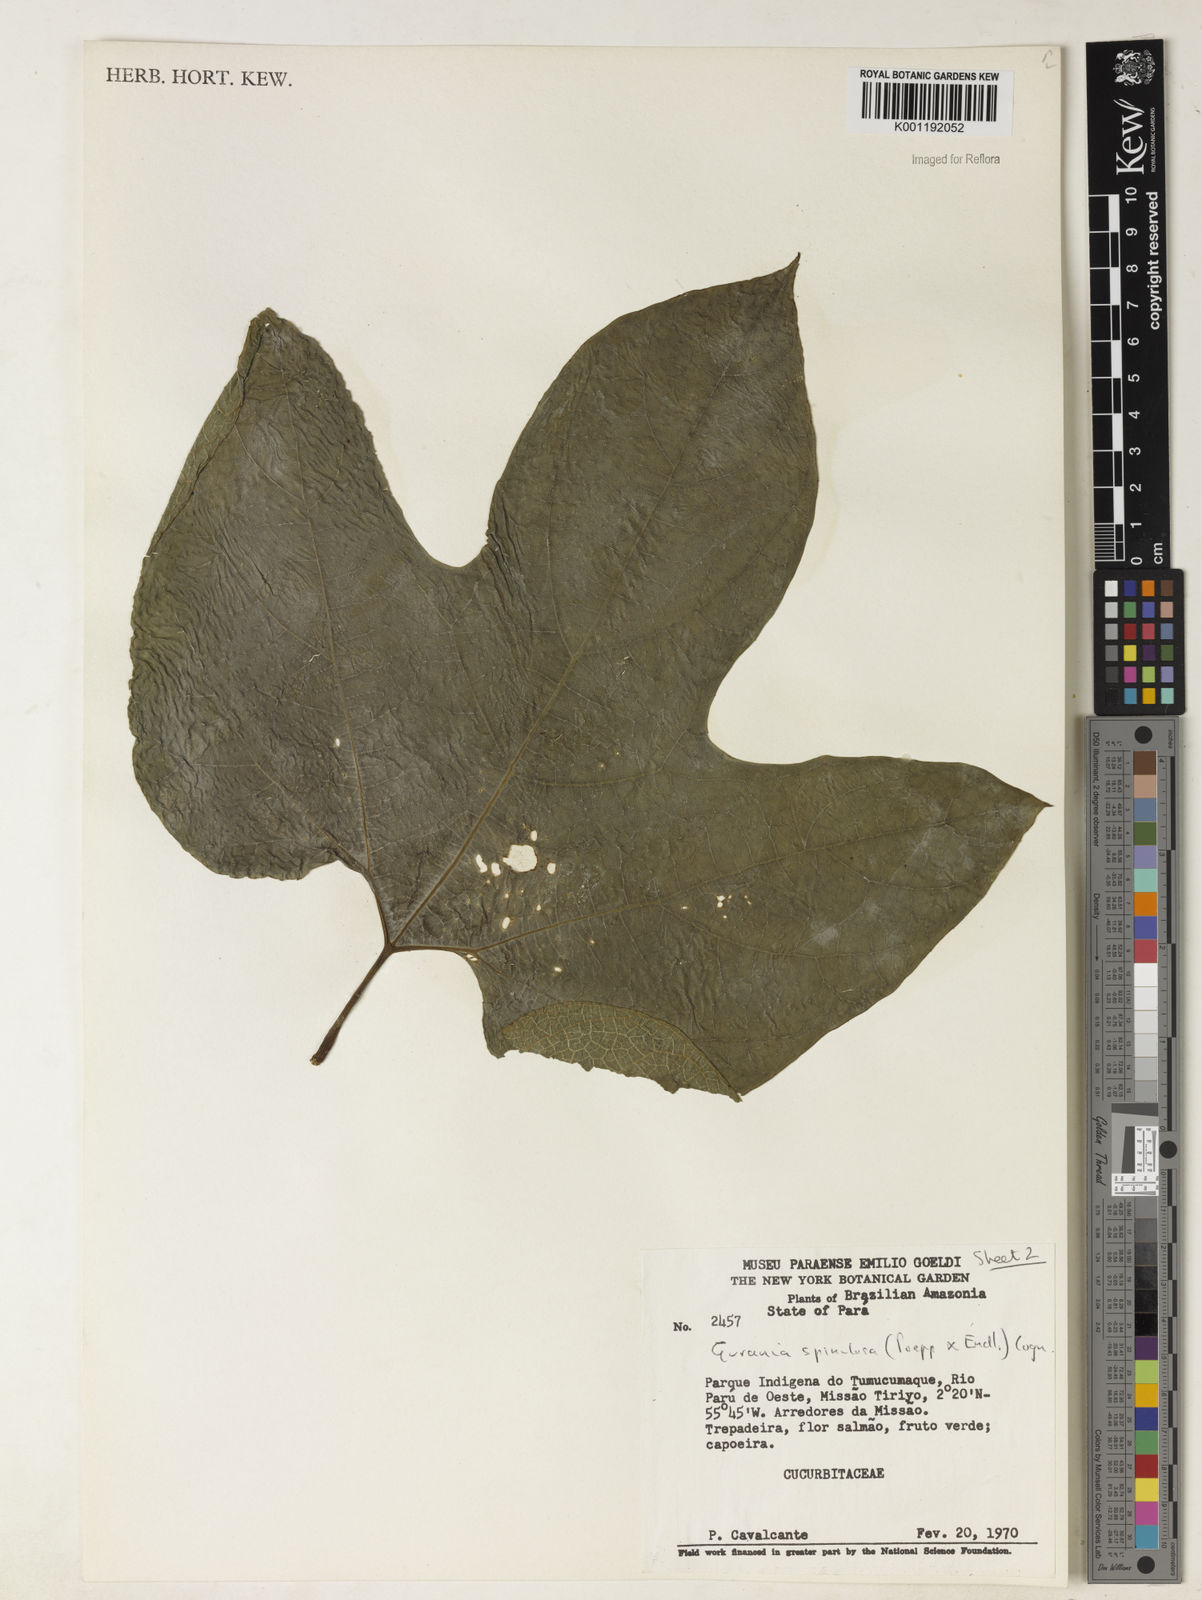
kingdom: Plantae
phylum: Tracheophyta
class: Magnoliopsida
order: Cucurbitales
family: Cucurbitaceae
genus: Gurania
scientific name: Gurania lobata
